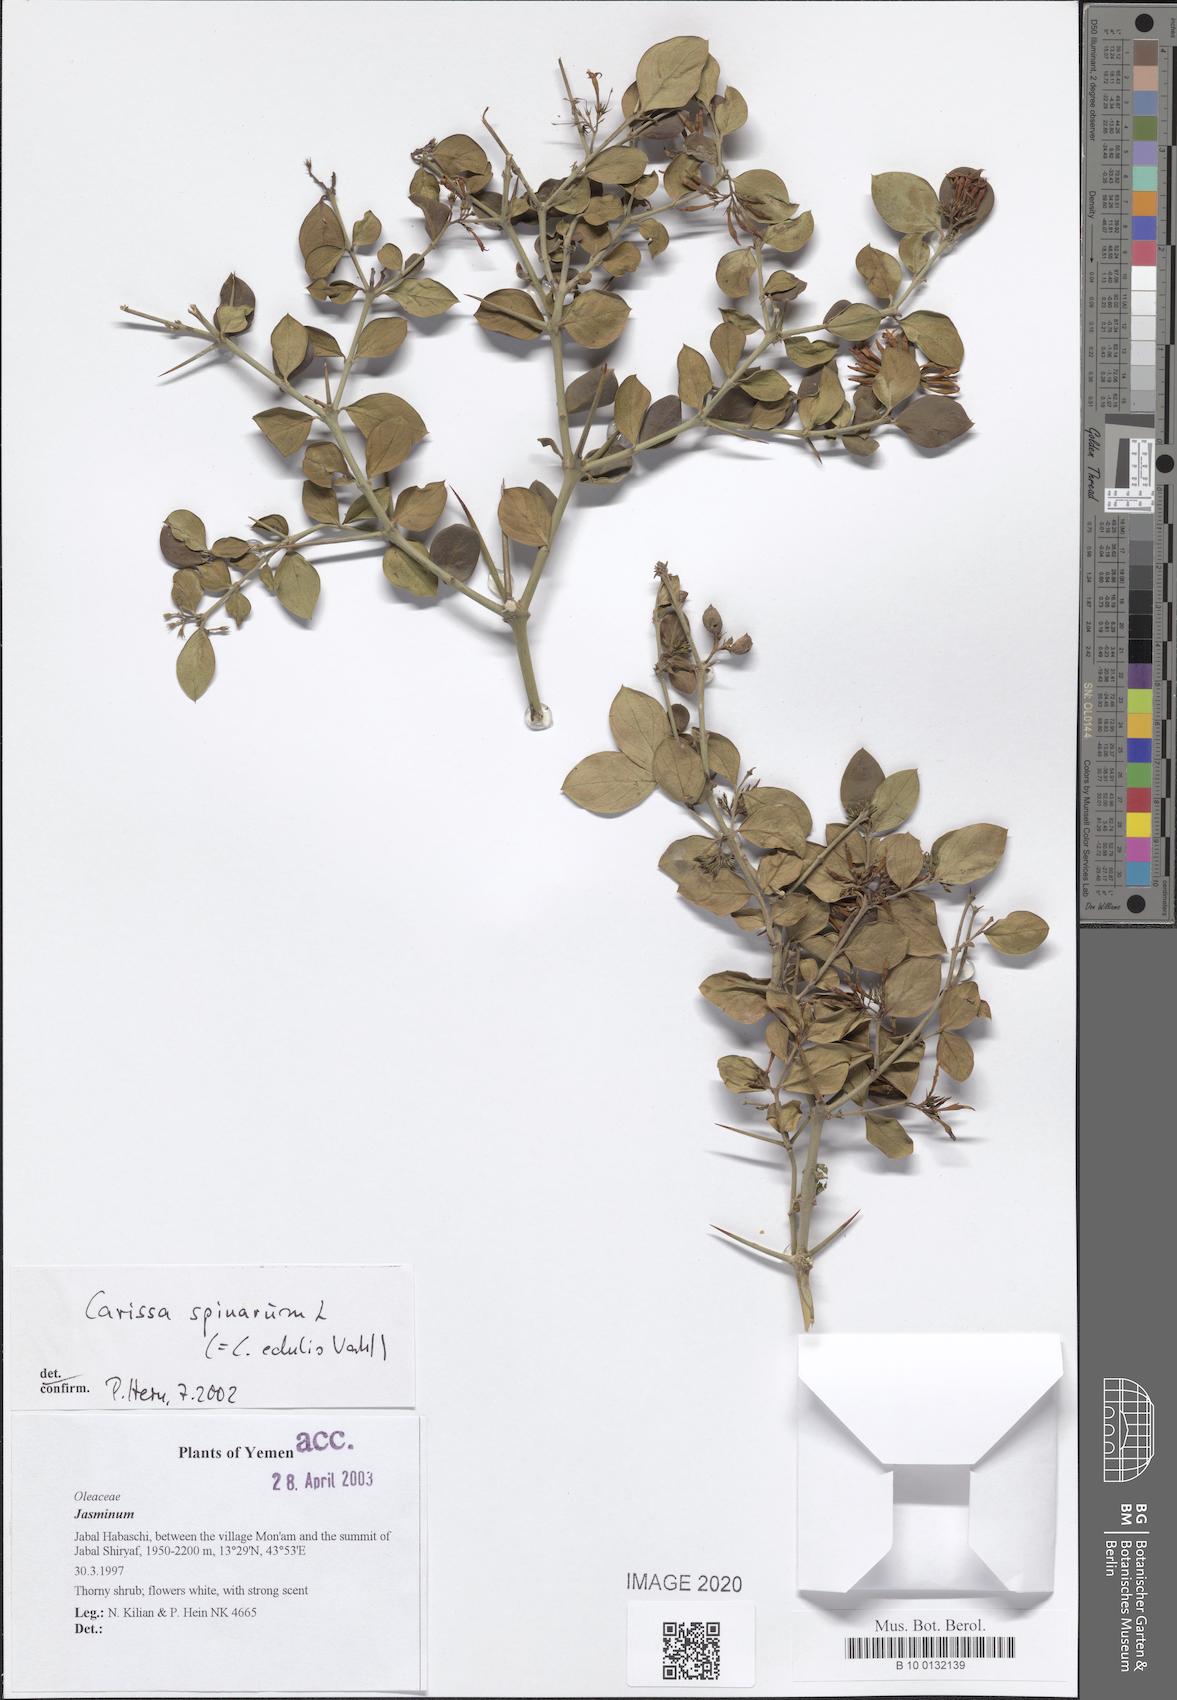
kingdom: Plantae
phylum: Tracheophyta
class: Magnoliopsida
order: Gentianales
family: Apocynaceae
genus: Carissa
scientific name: Carissa spinarum
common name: Egyptian carissa
